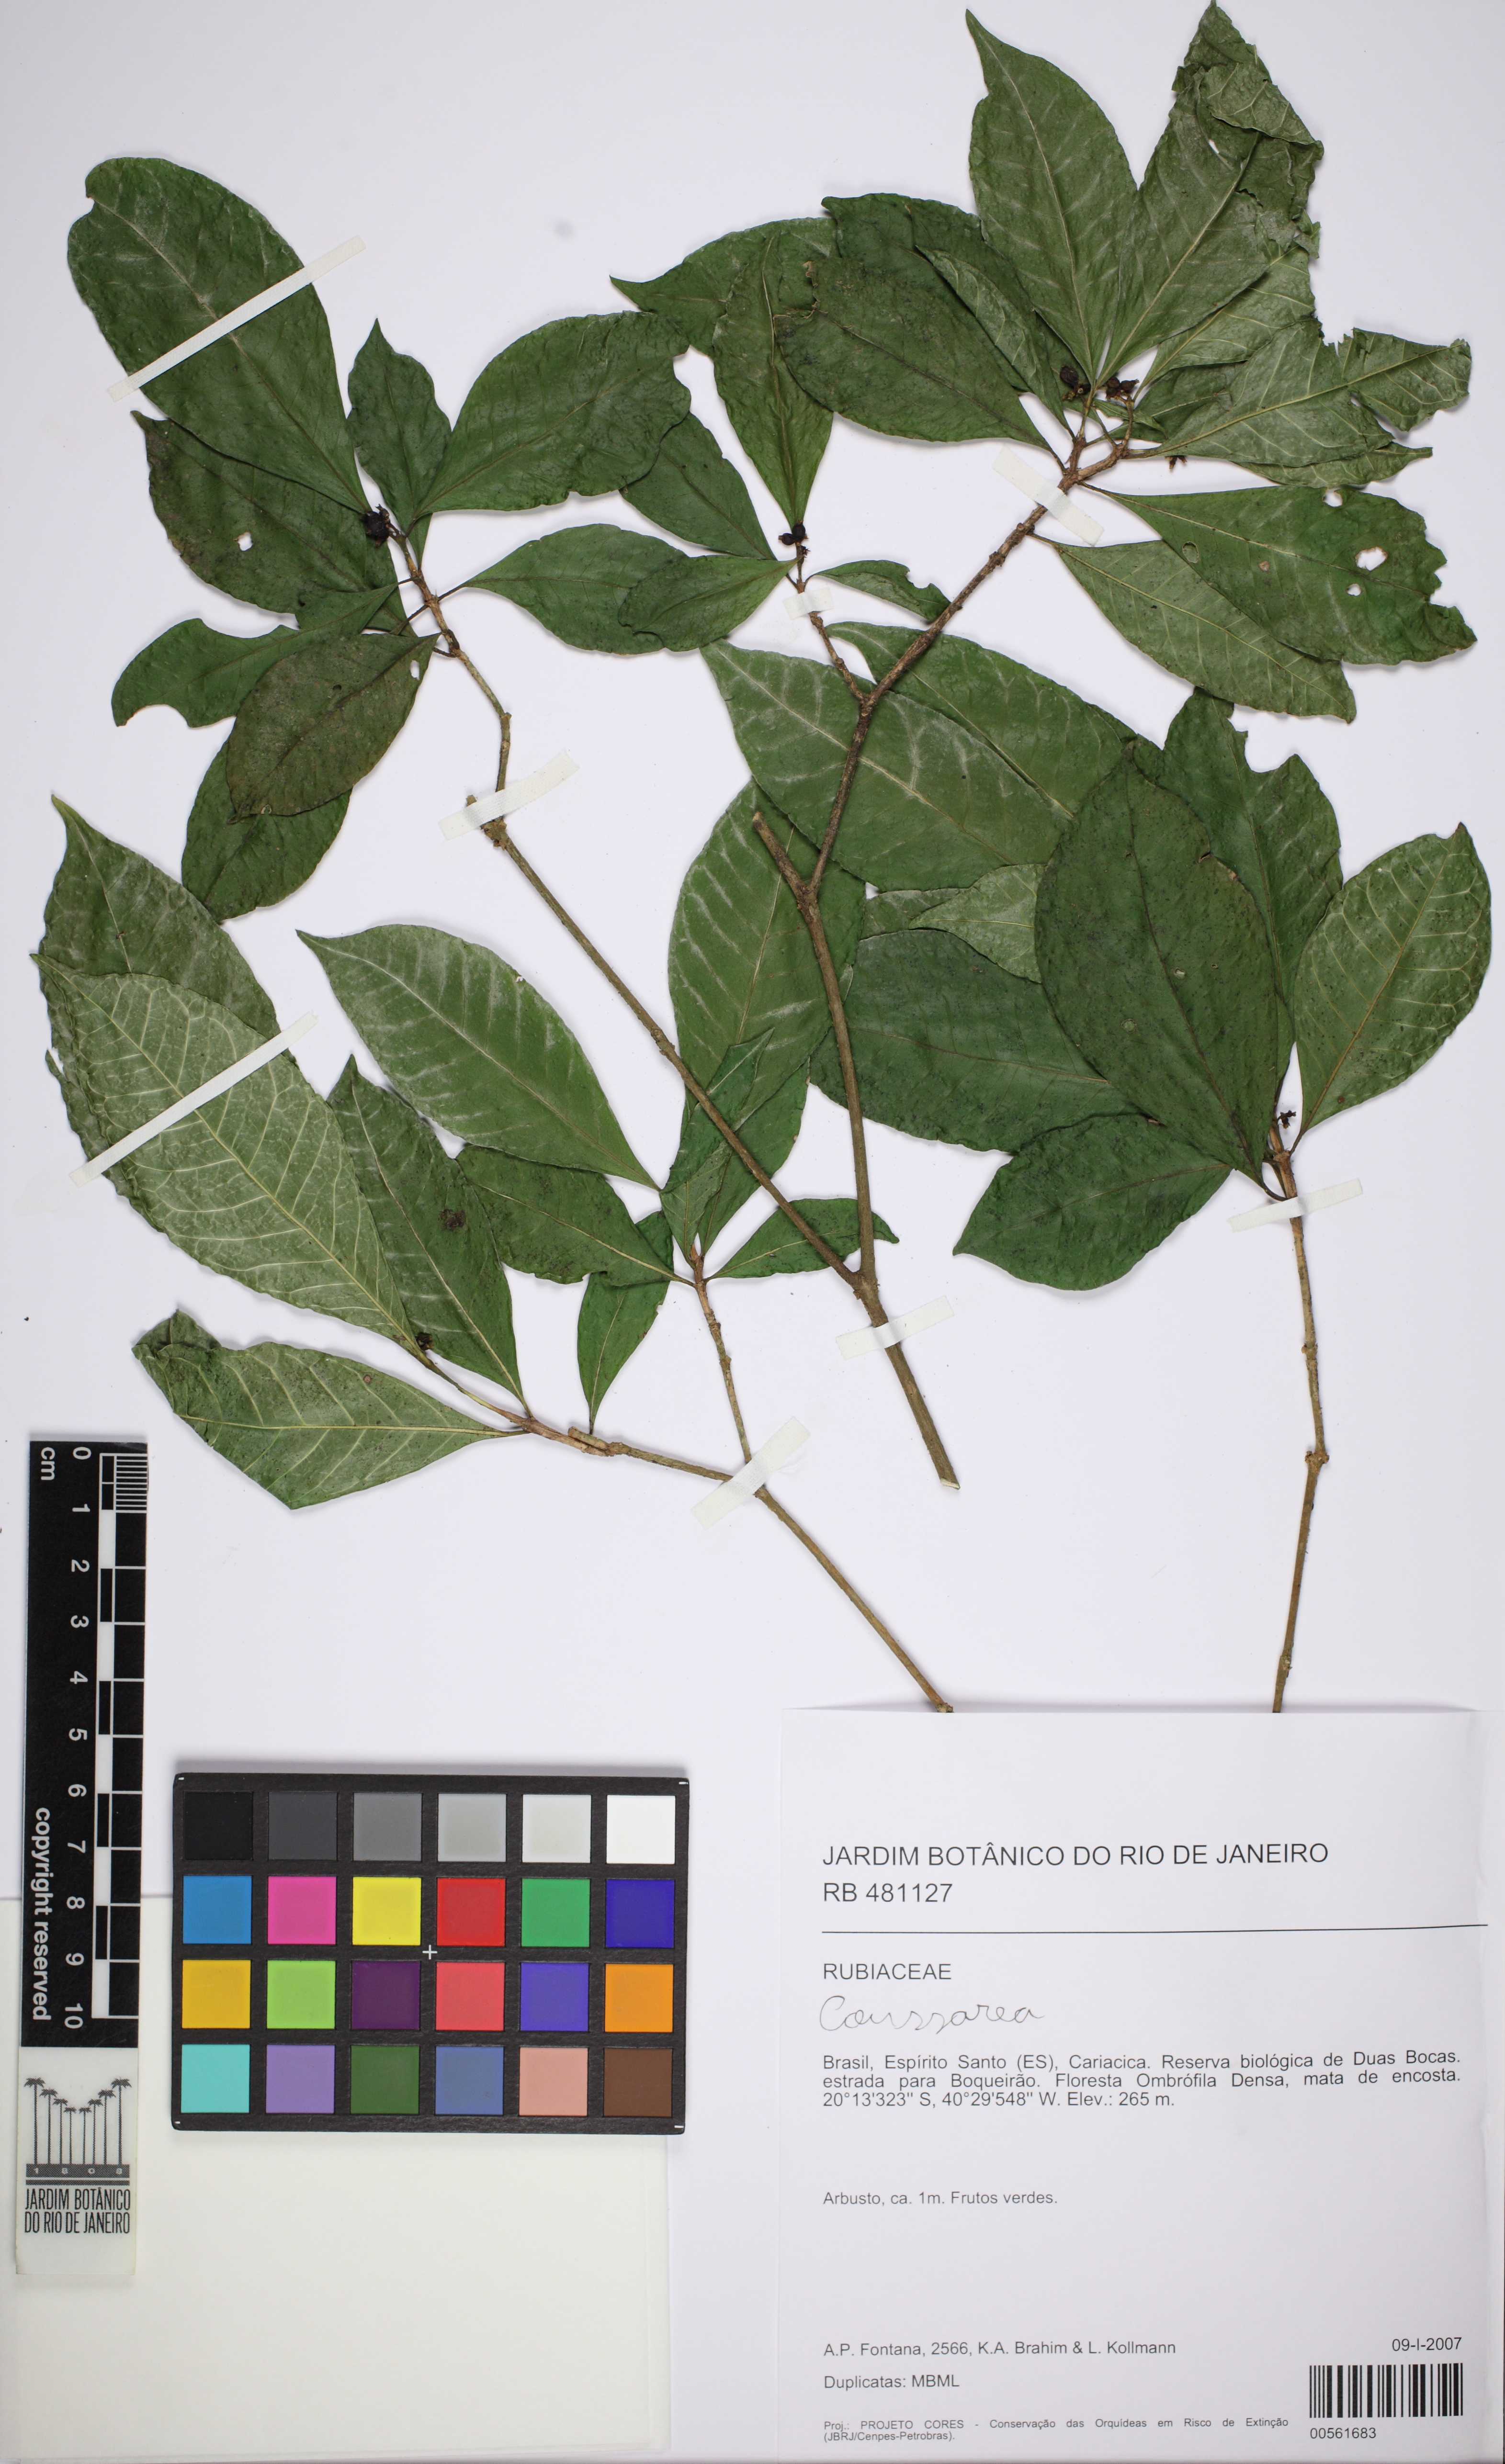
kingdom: Plantae
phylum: Tracheophyta
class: Magnoliopsida
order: Gentianales
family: Rubiaceae
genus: Coussarea
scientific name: Coussarea
